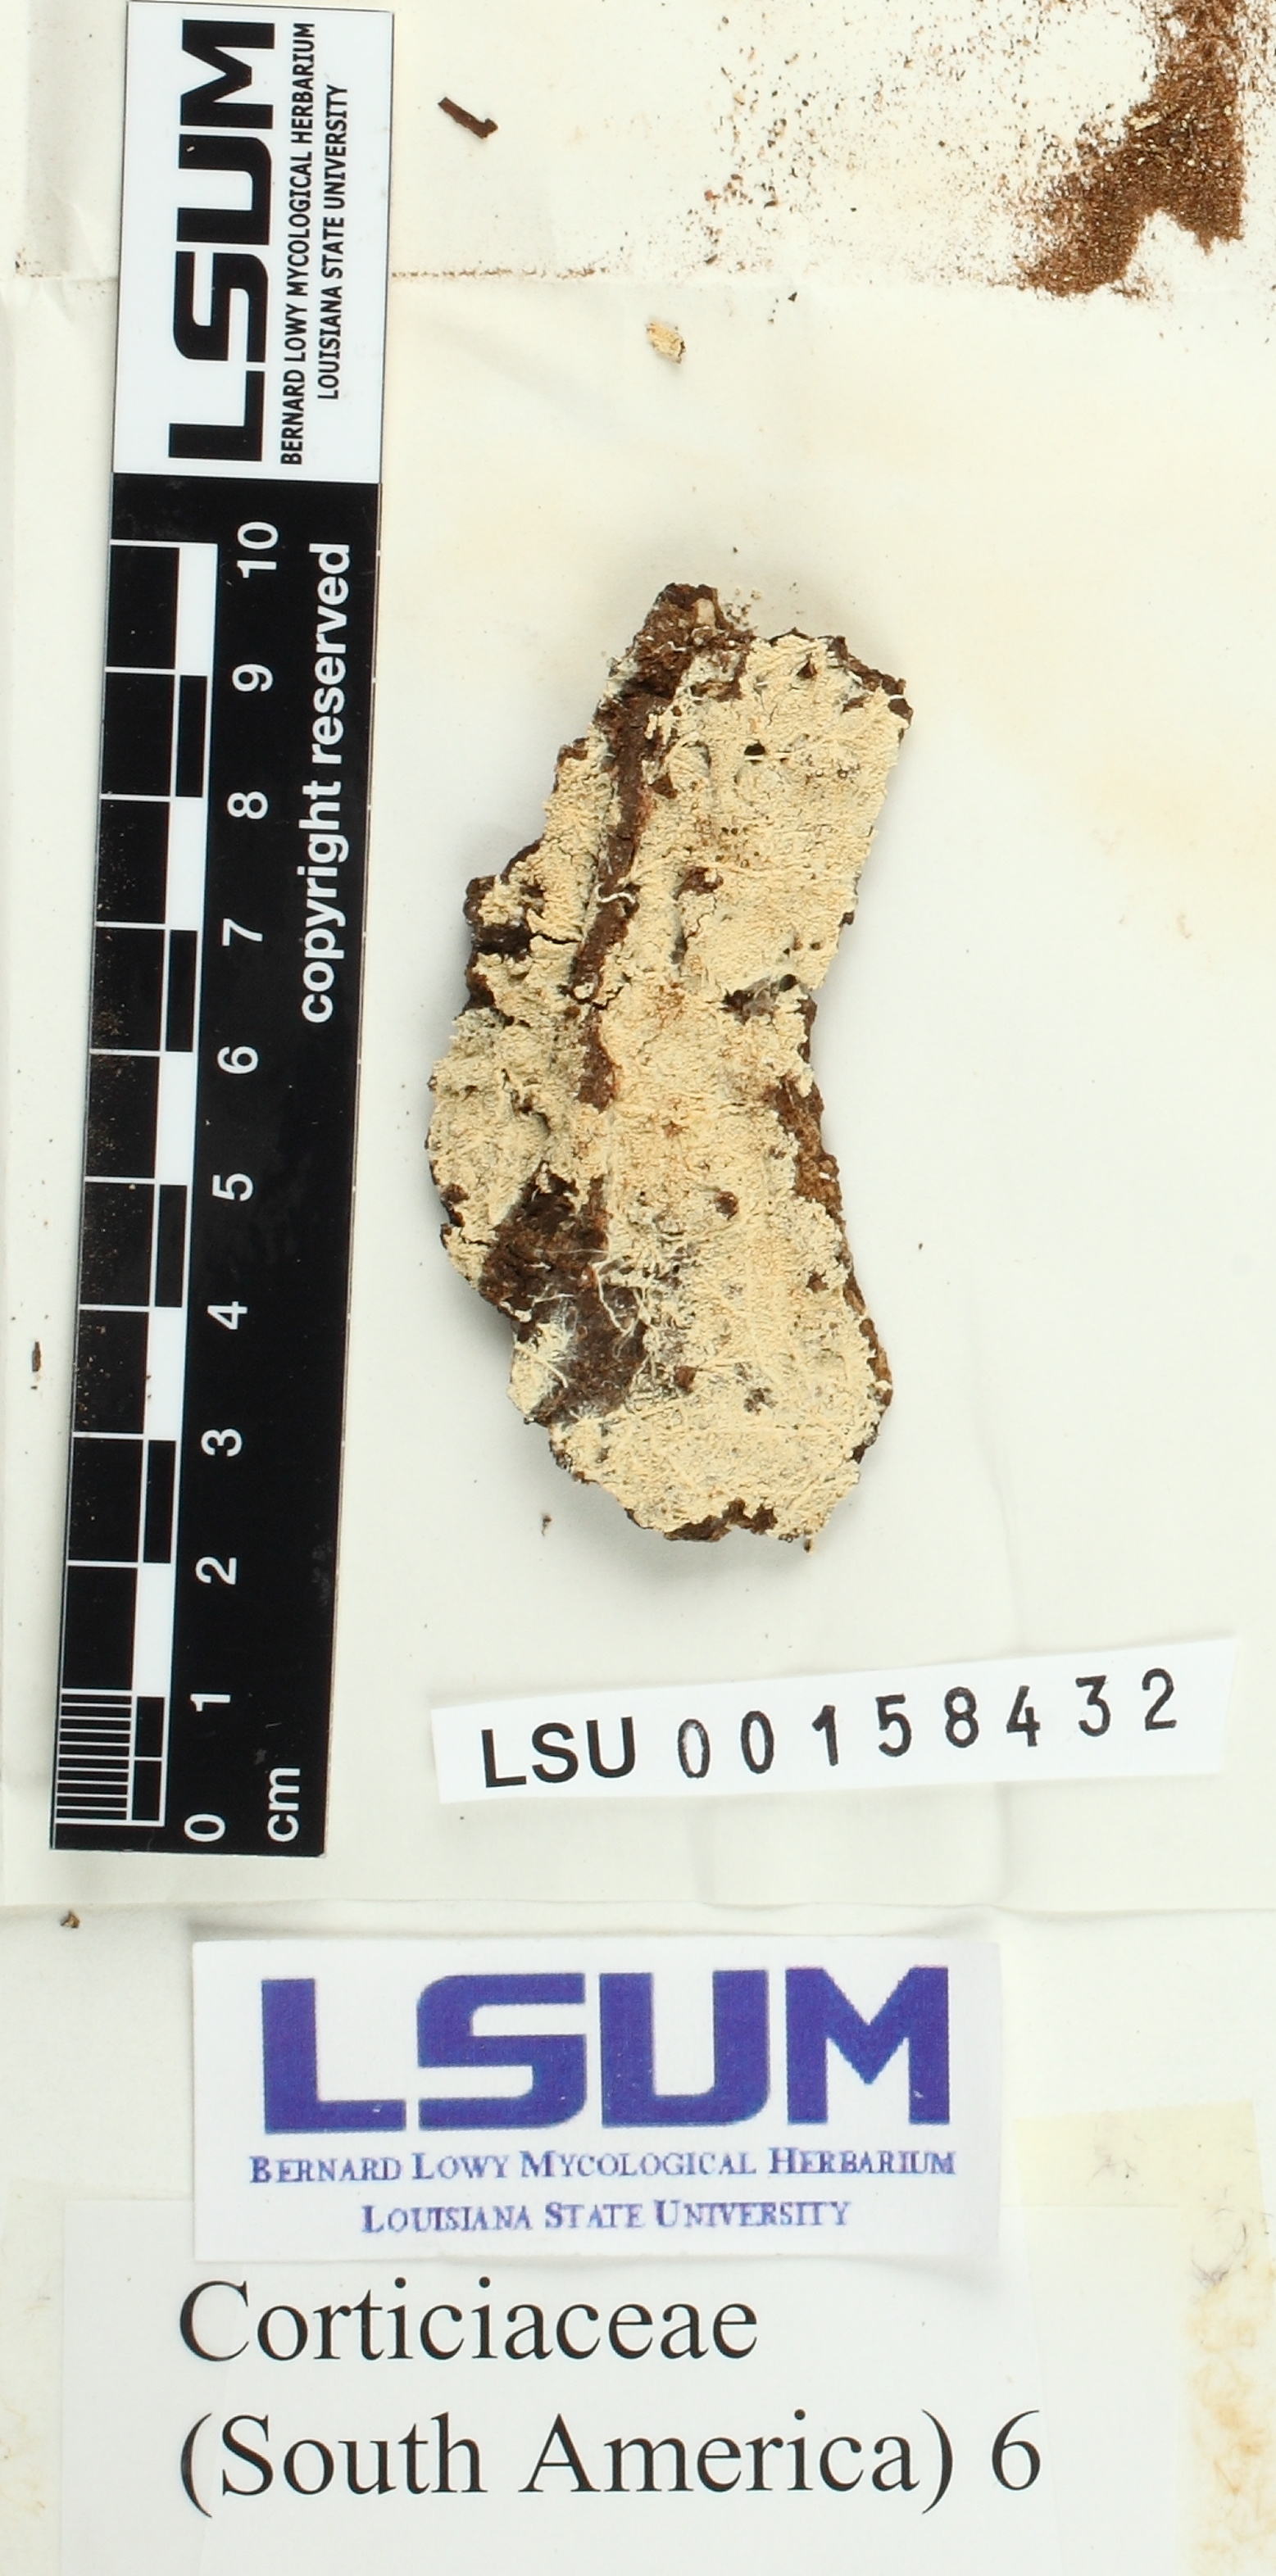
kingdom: Fungi
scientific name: Fungi
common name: Fungi
